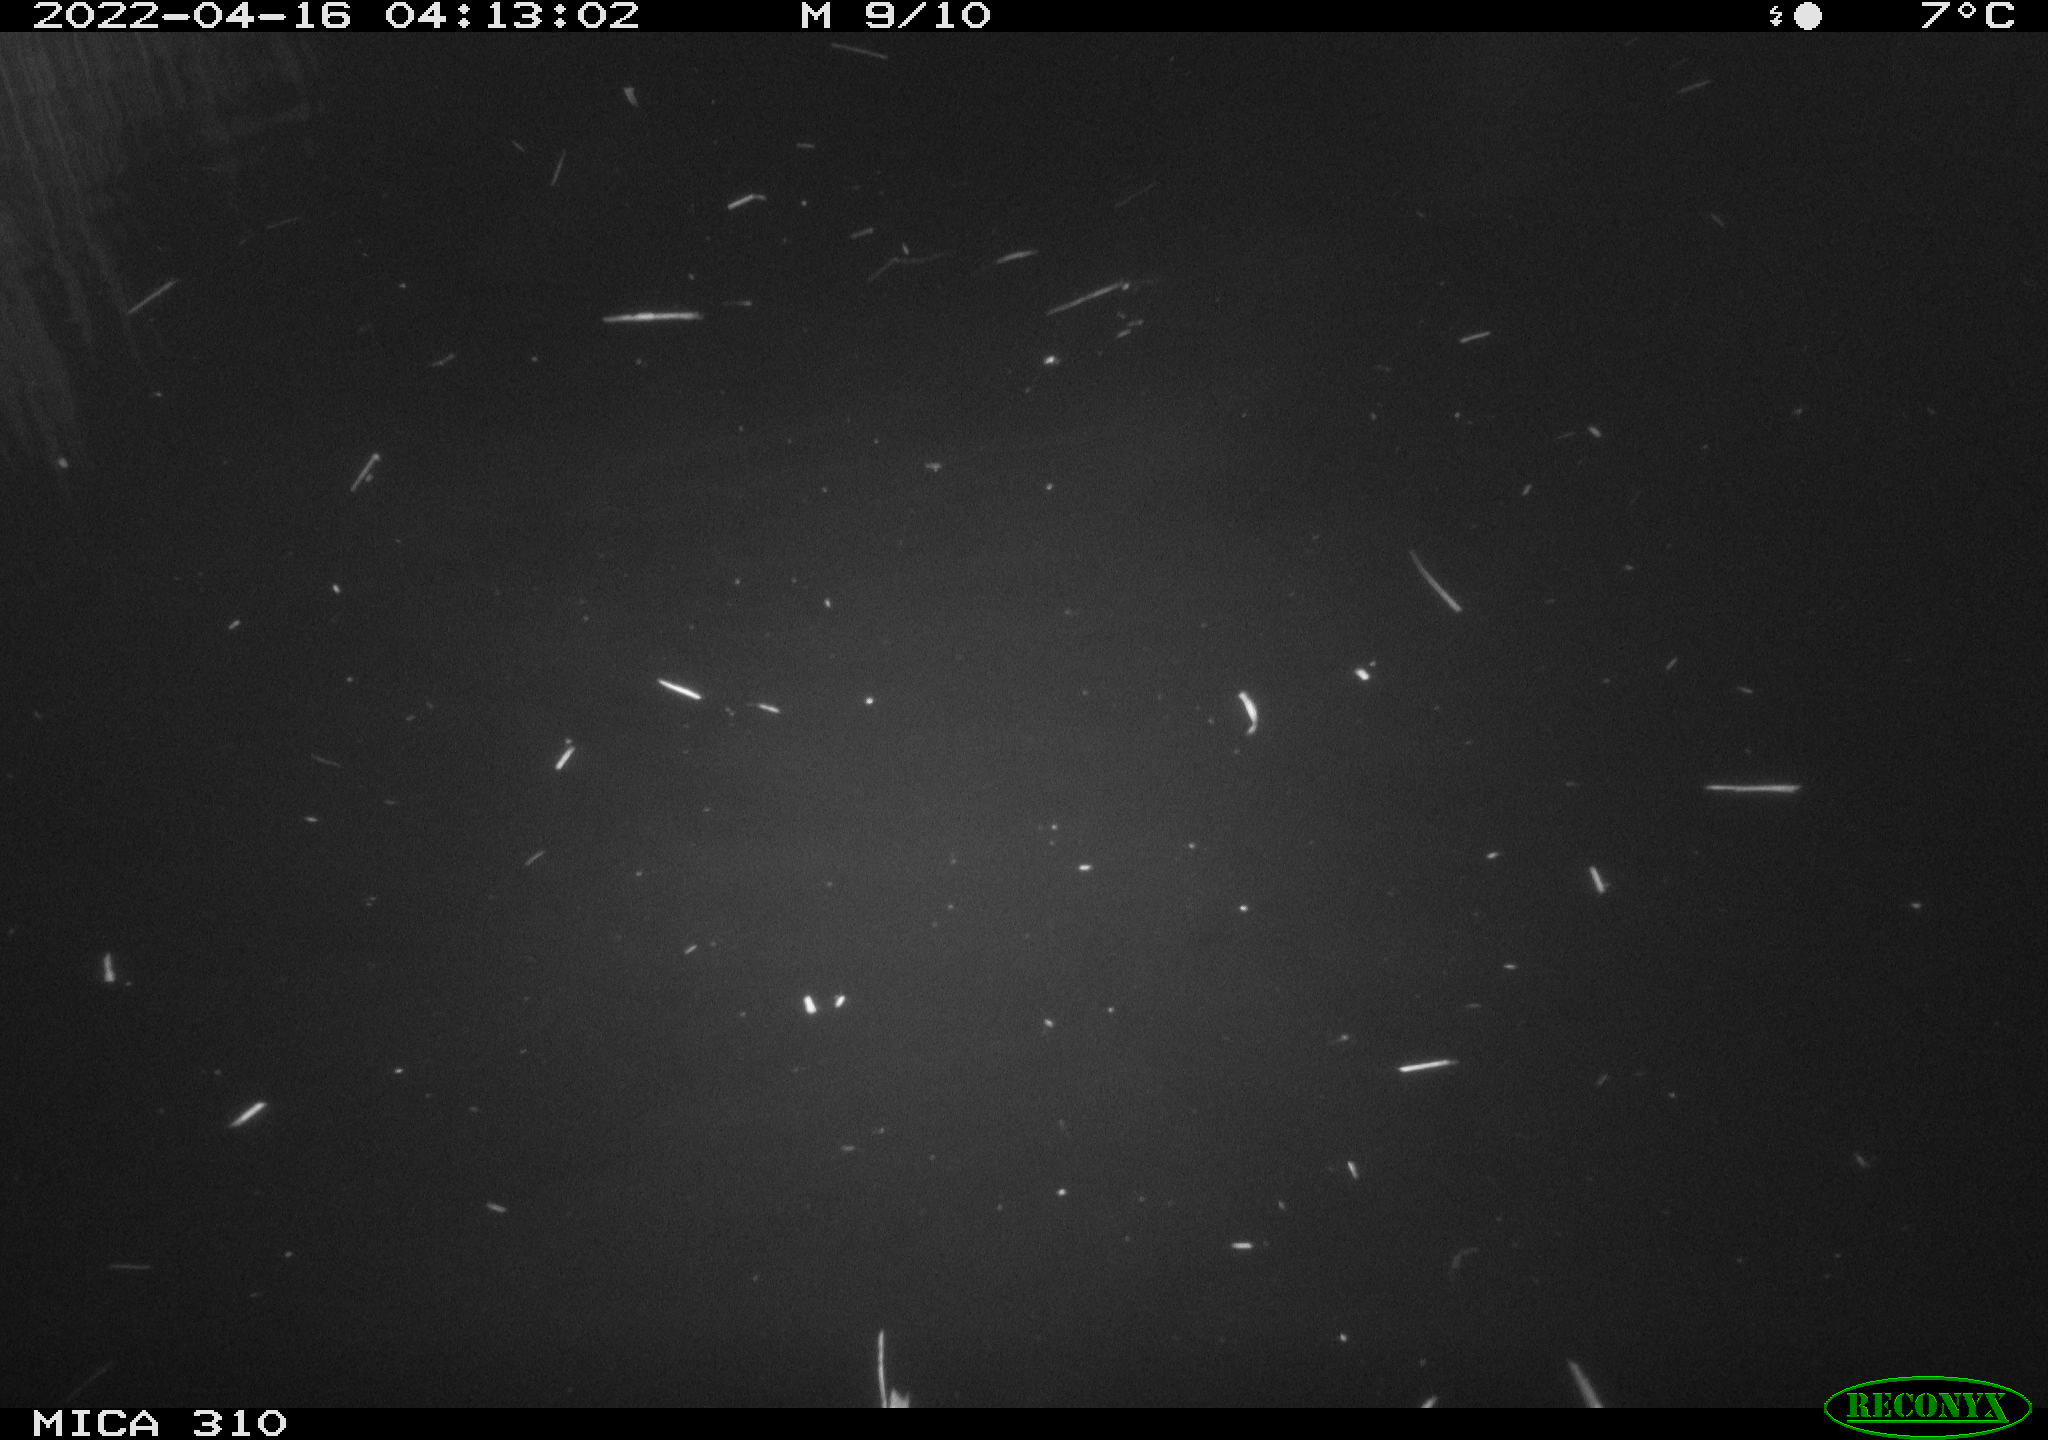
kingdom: Animalia
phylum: Chordata
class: Aves
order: Anseriformes
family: Anatidae
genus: Anas
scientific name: Anas platyrhynchos
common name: Mallard
